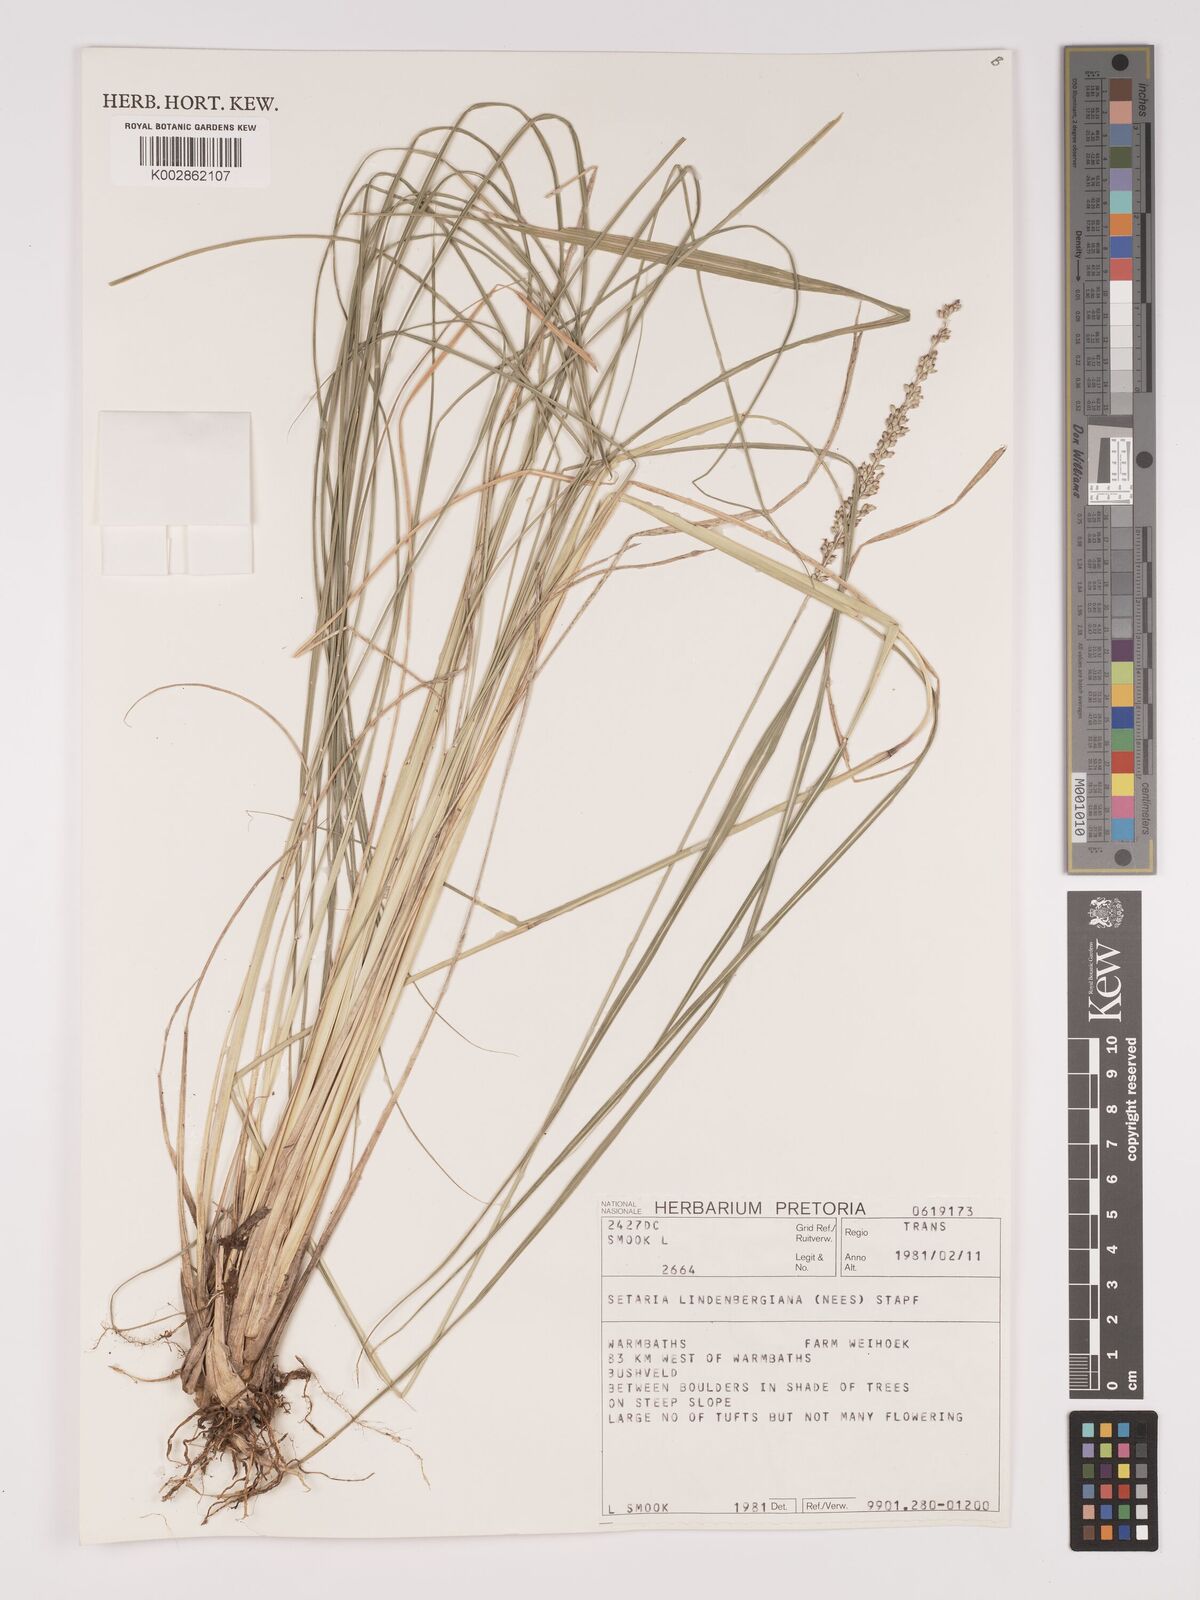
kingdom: Plantae
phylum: Tracheophyta
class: Liliopsida
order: Poales
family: Poaceae
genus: Setaria
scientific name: Setaria lindenbergiana
